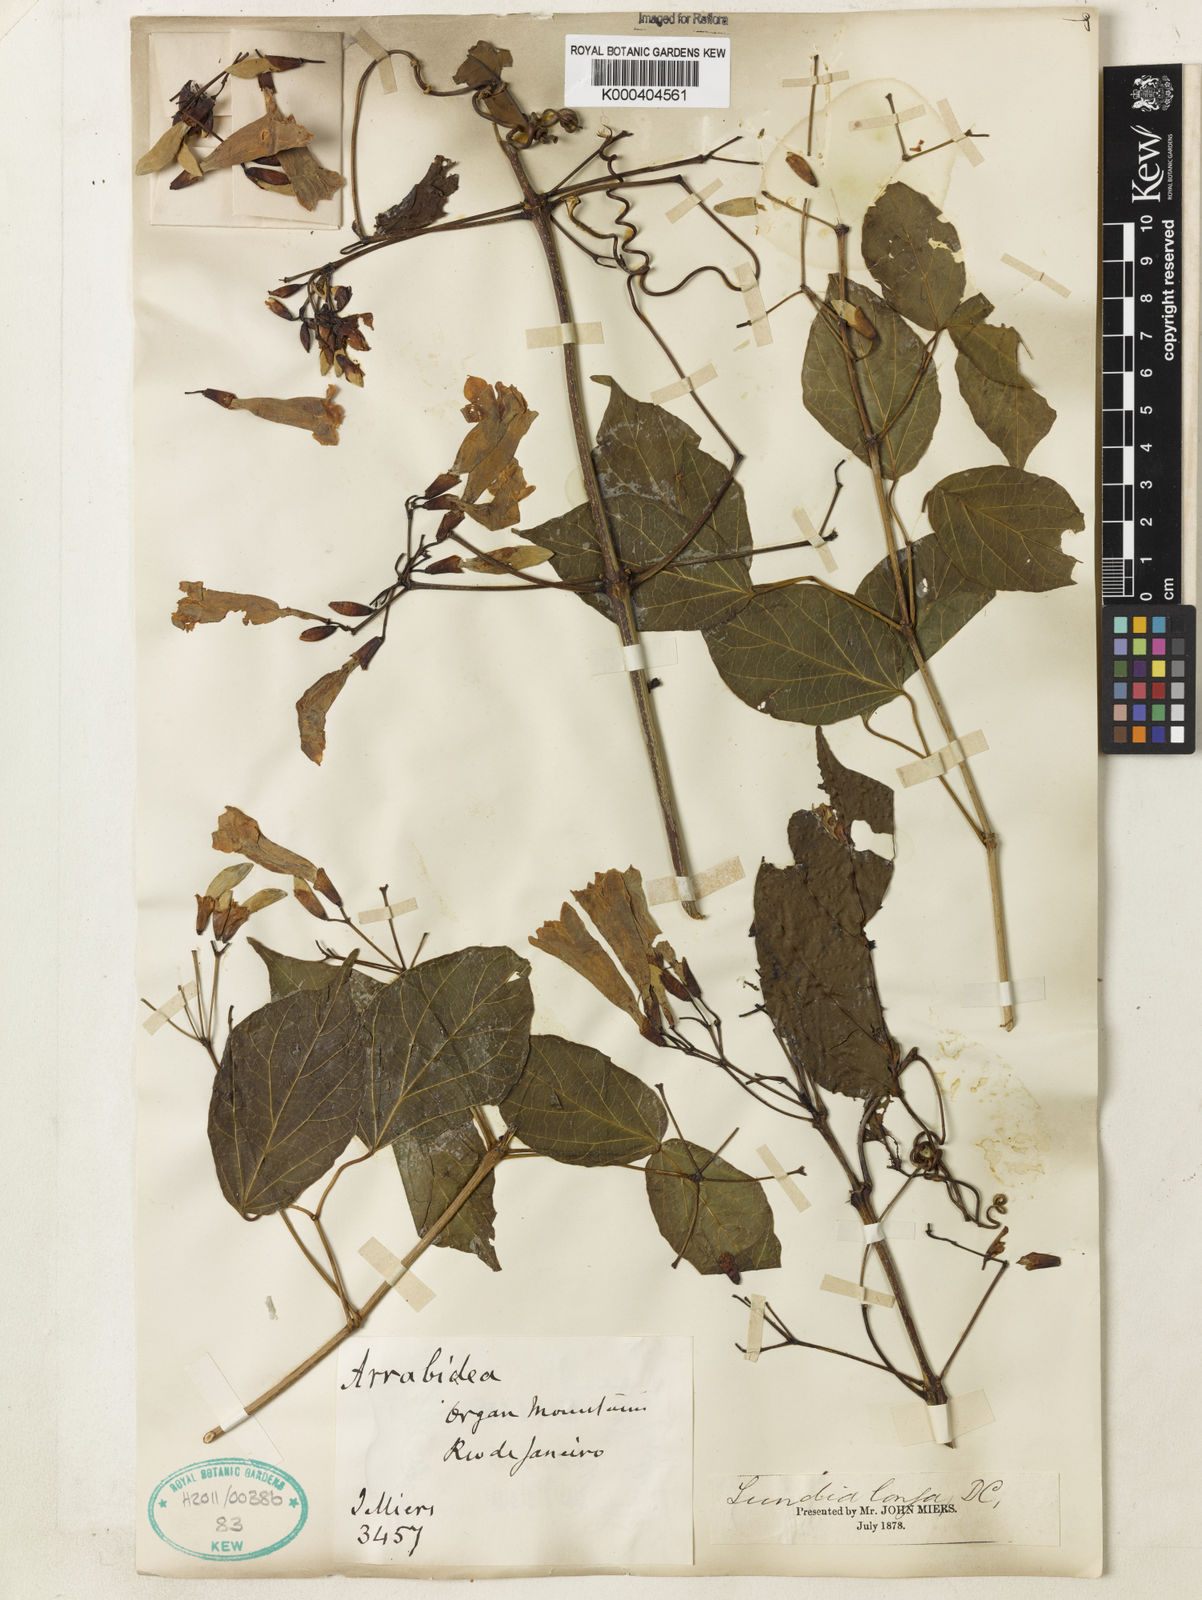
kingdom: Plantae
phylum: Tracheophyta
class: Magnoliopsida
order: Lamiales
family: Bignoniaceae
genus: Lundia
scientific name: Lundia longa
